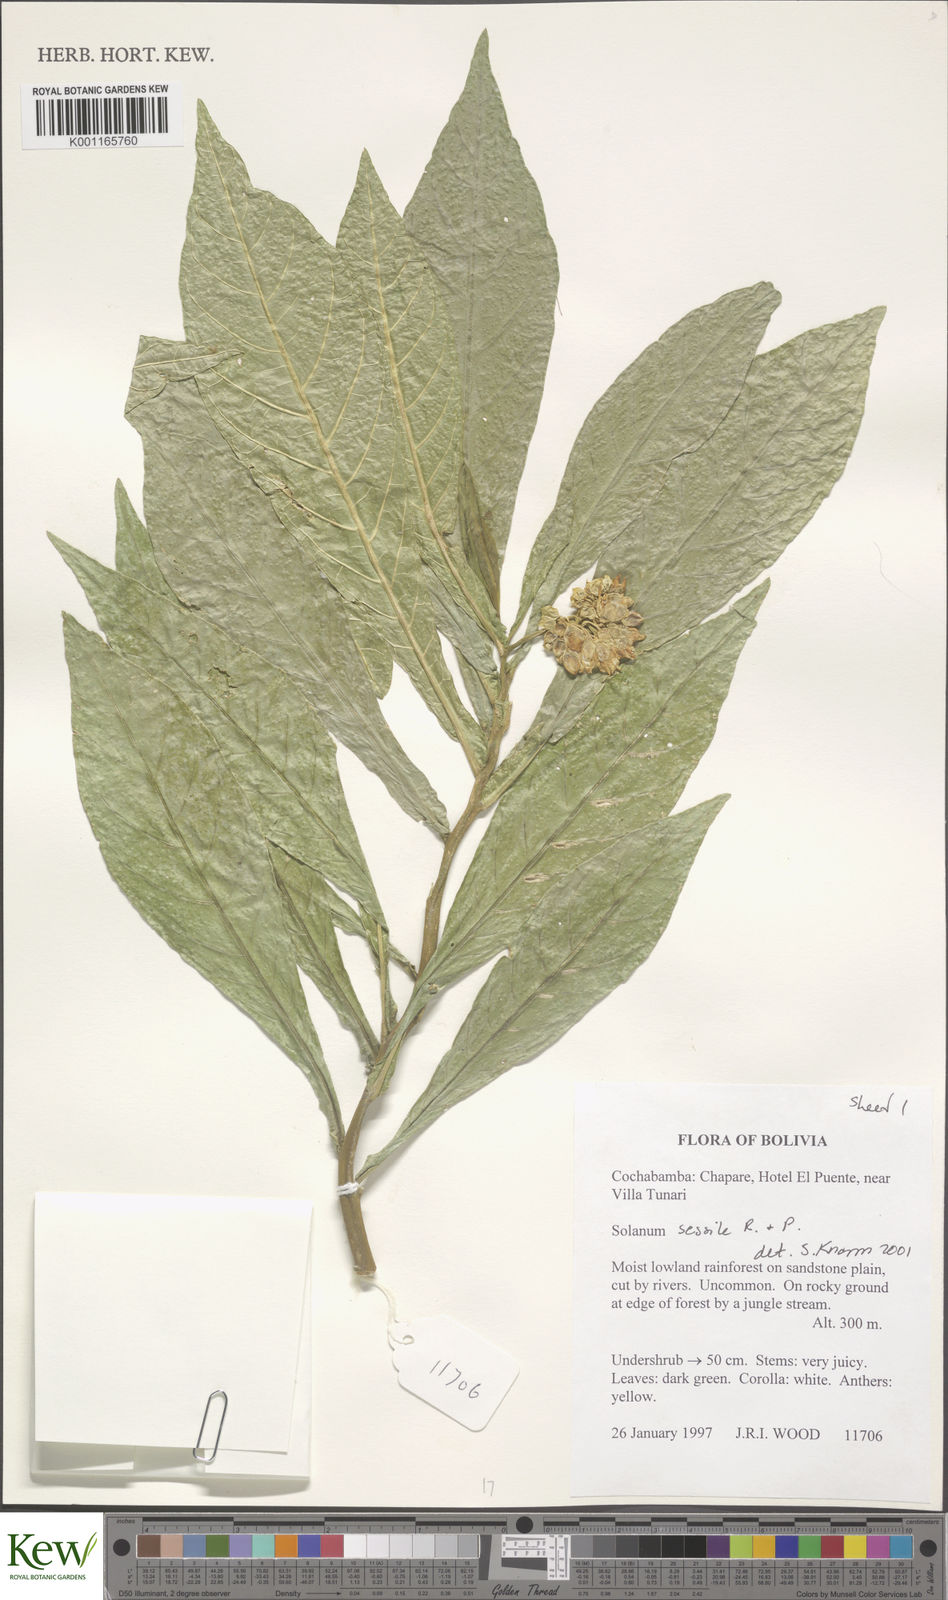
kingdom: Plantae
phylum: Tracheophyta
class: Magnoliopsida
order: Solanales
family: Solanaceae
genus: Solanum
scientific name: Solanum sessile
